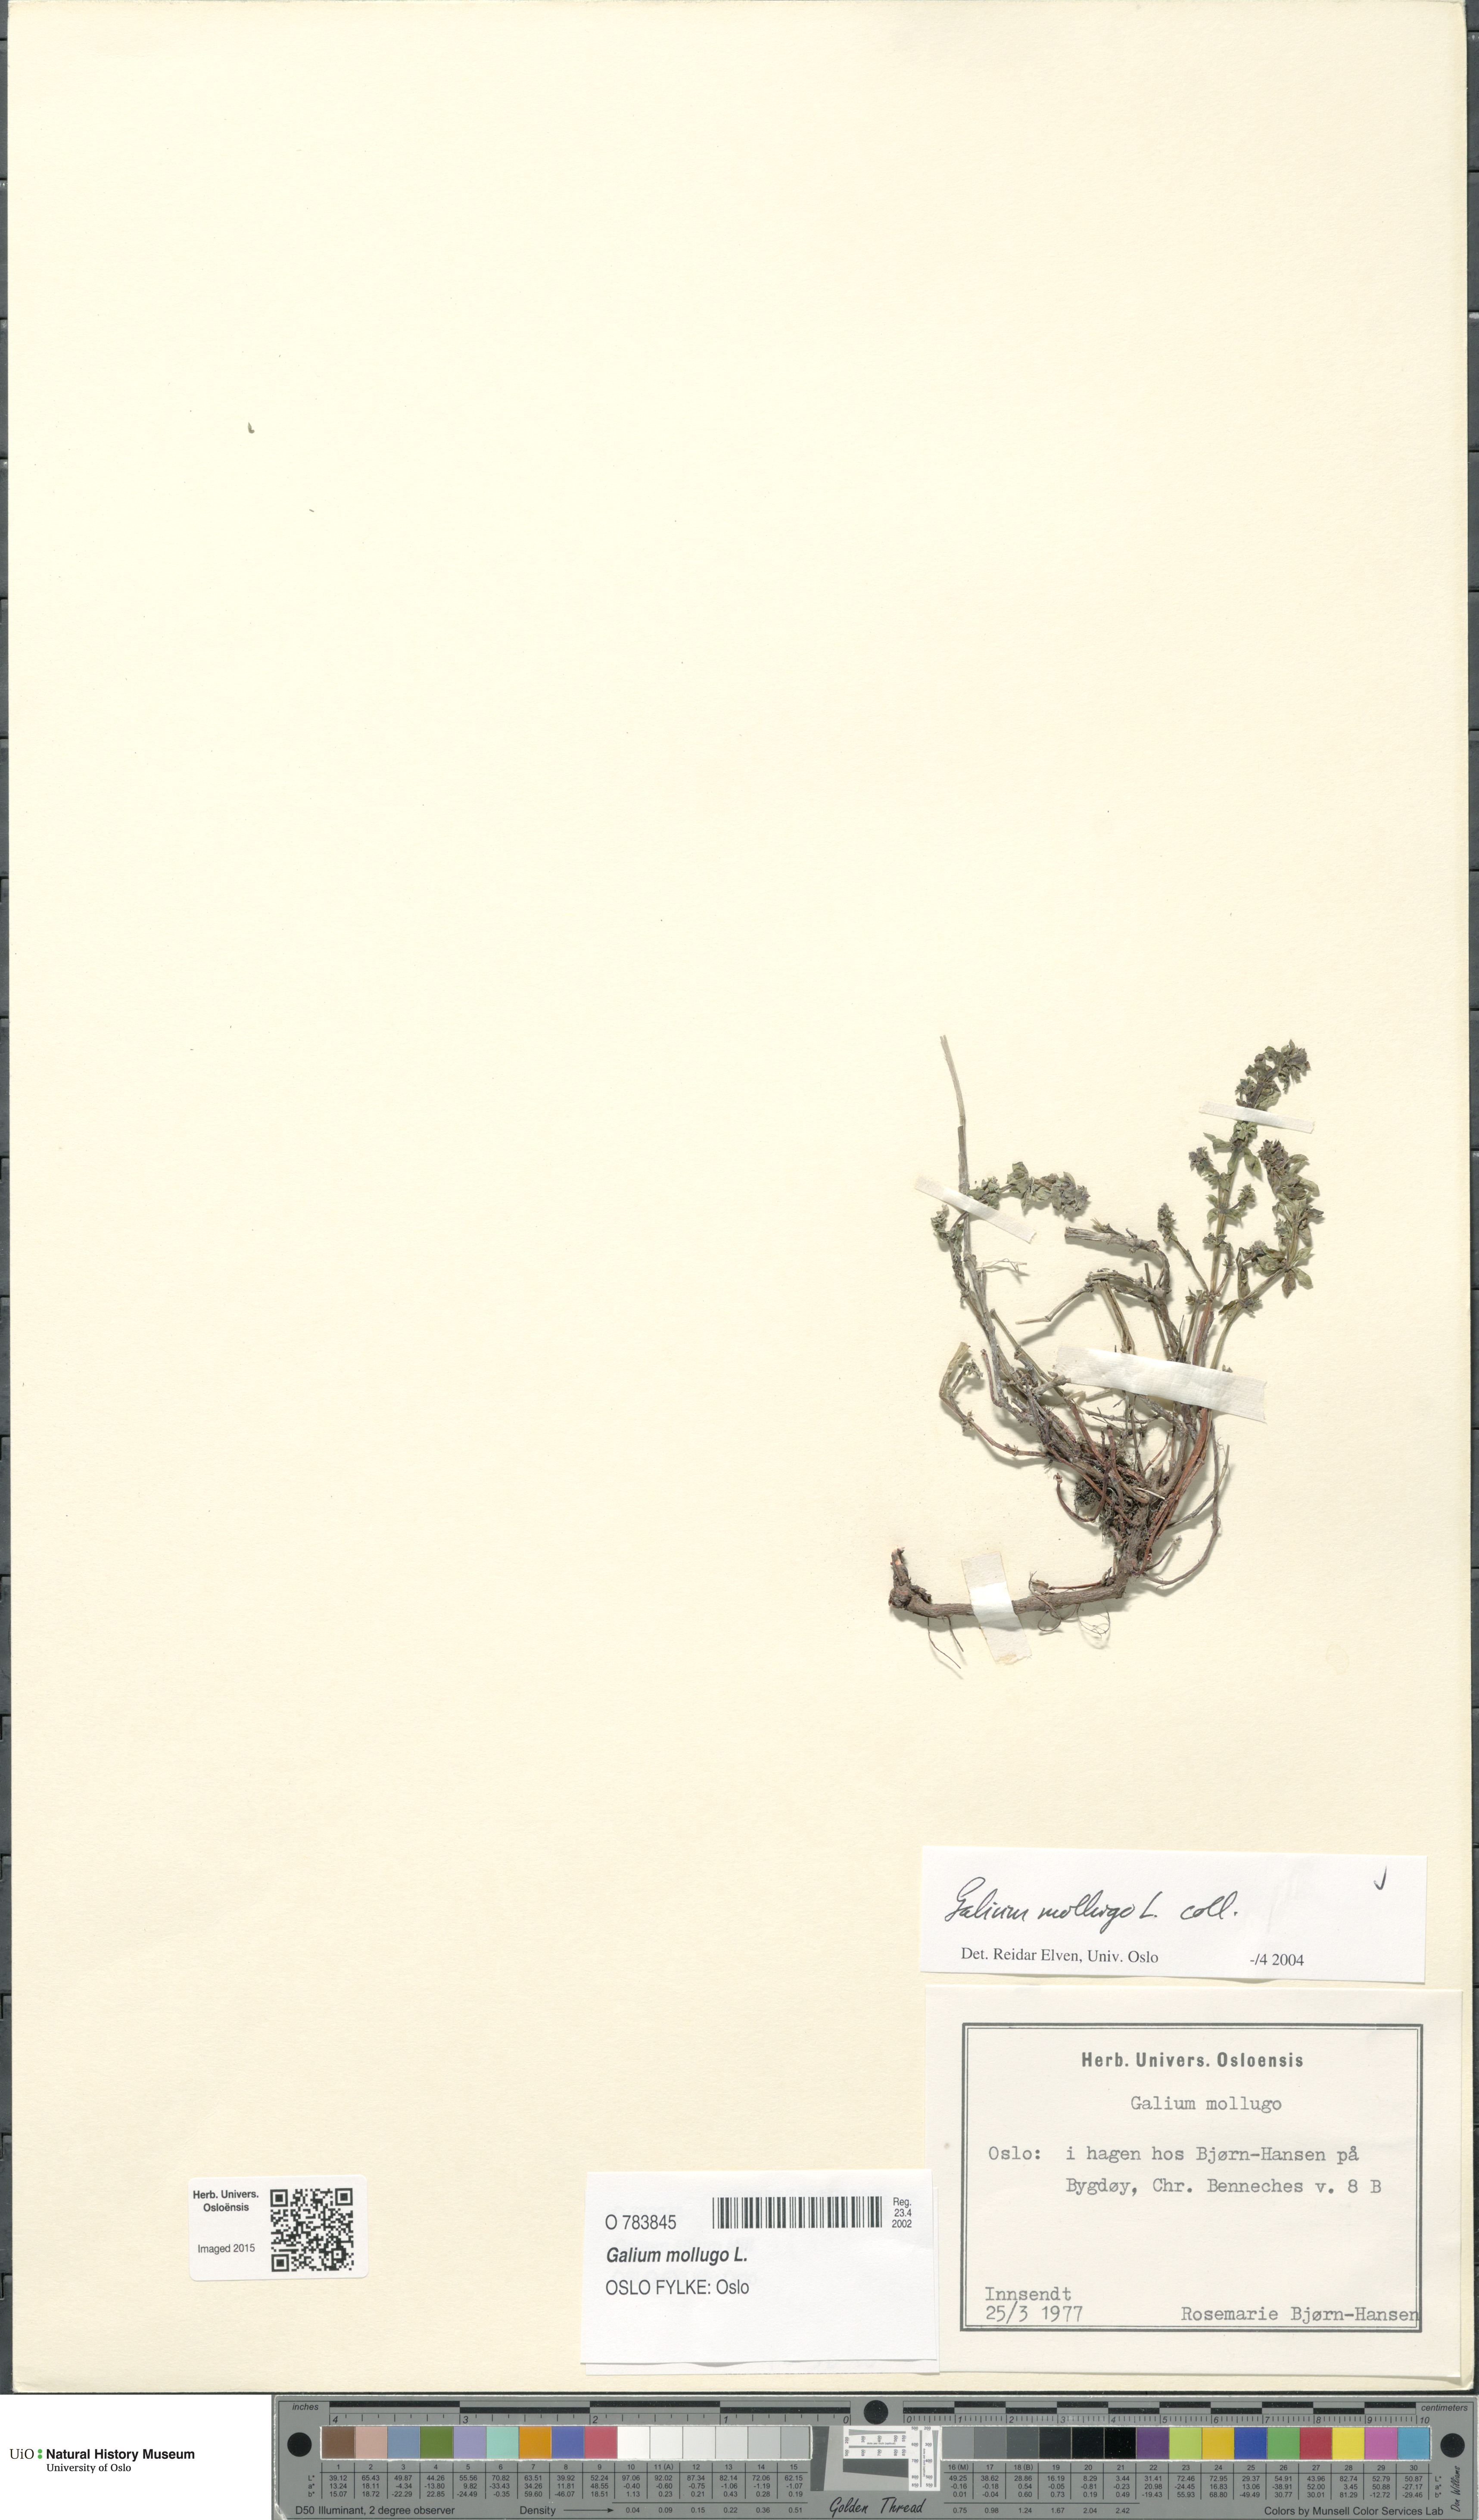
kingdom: Plantae
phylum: Tracheophyta
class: Magnoliopsida
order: Gentianales
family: Rubiaceae
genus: Galium
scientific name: Galium mollugo
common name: Hedge bedstraw
